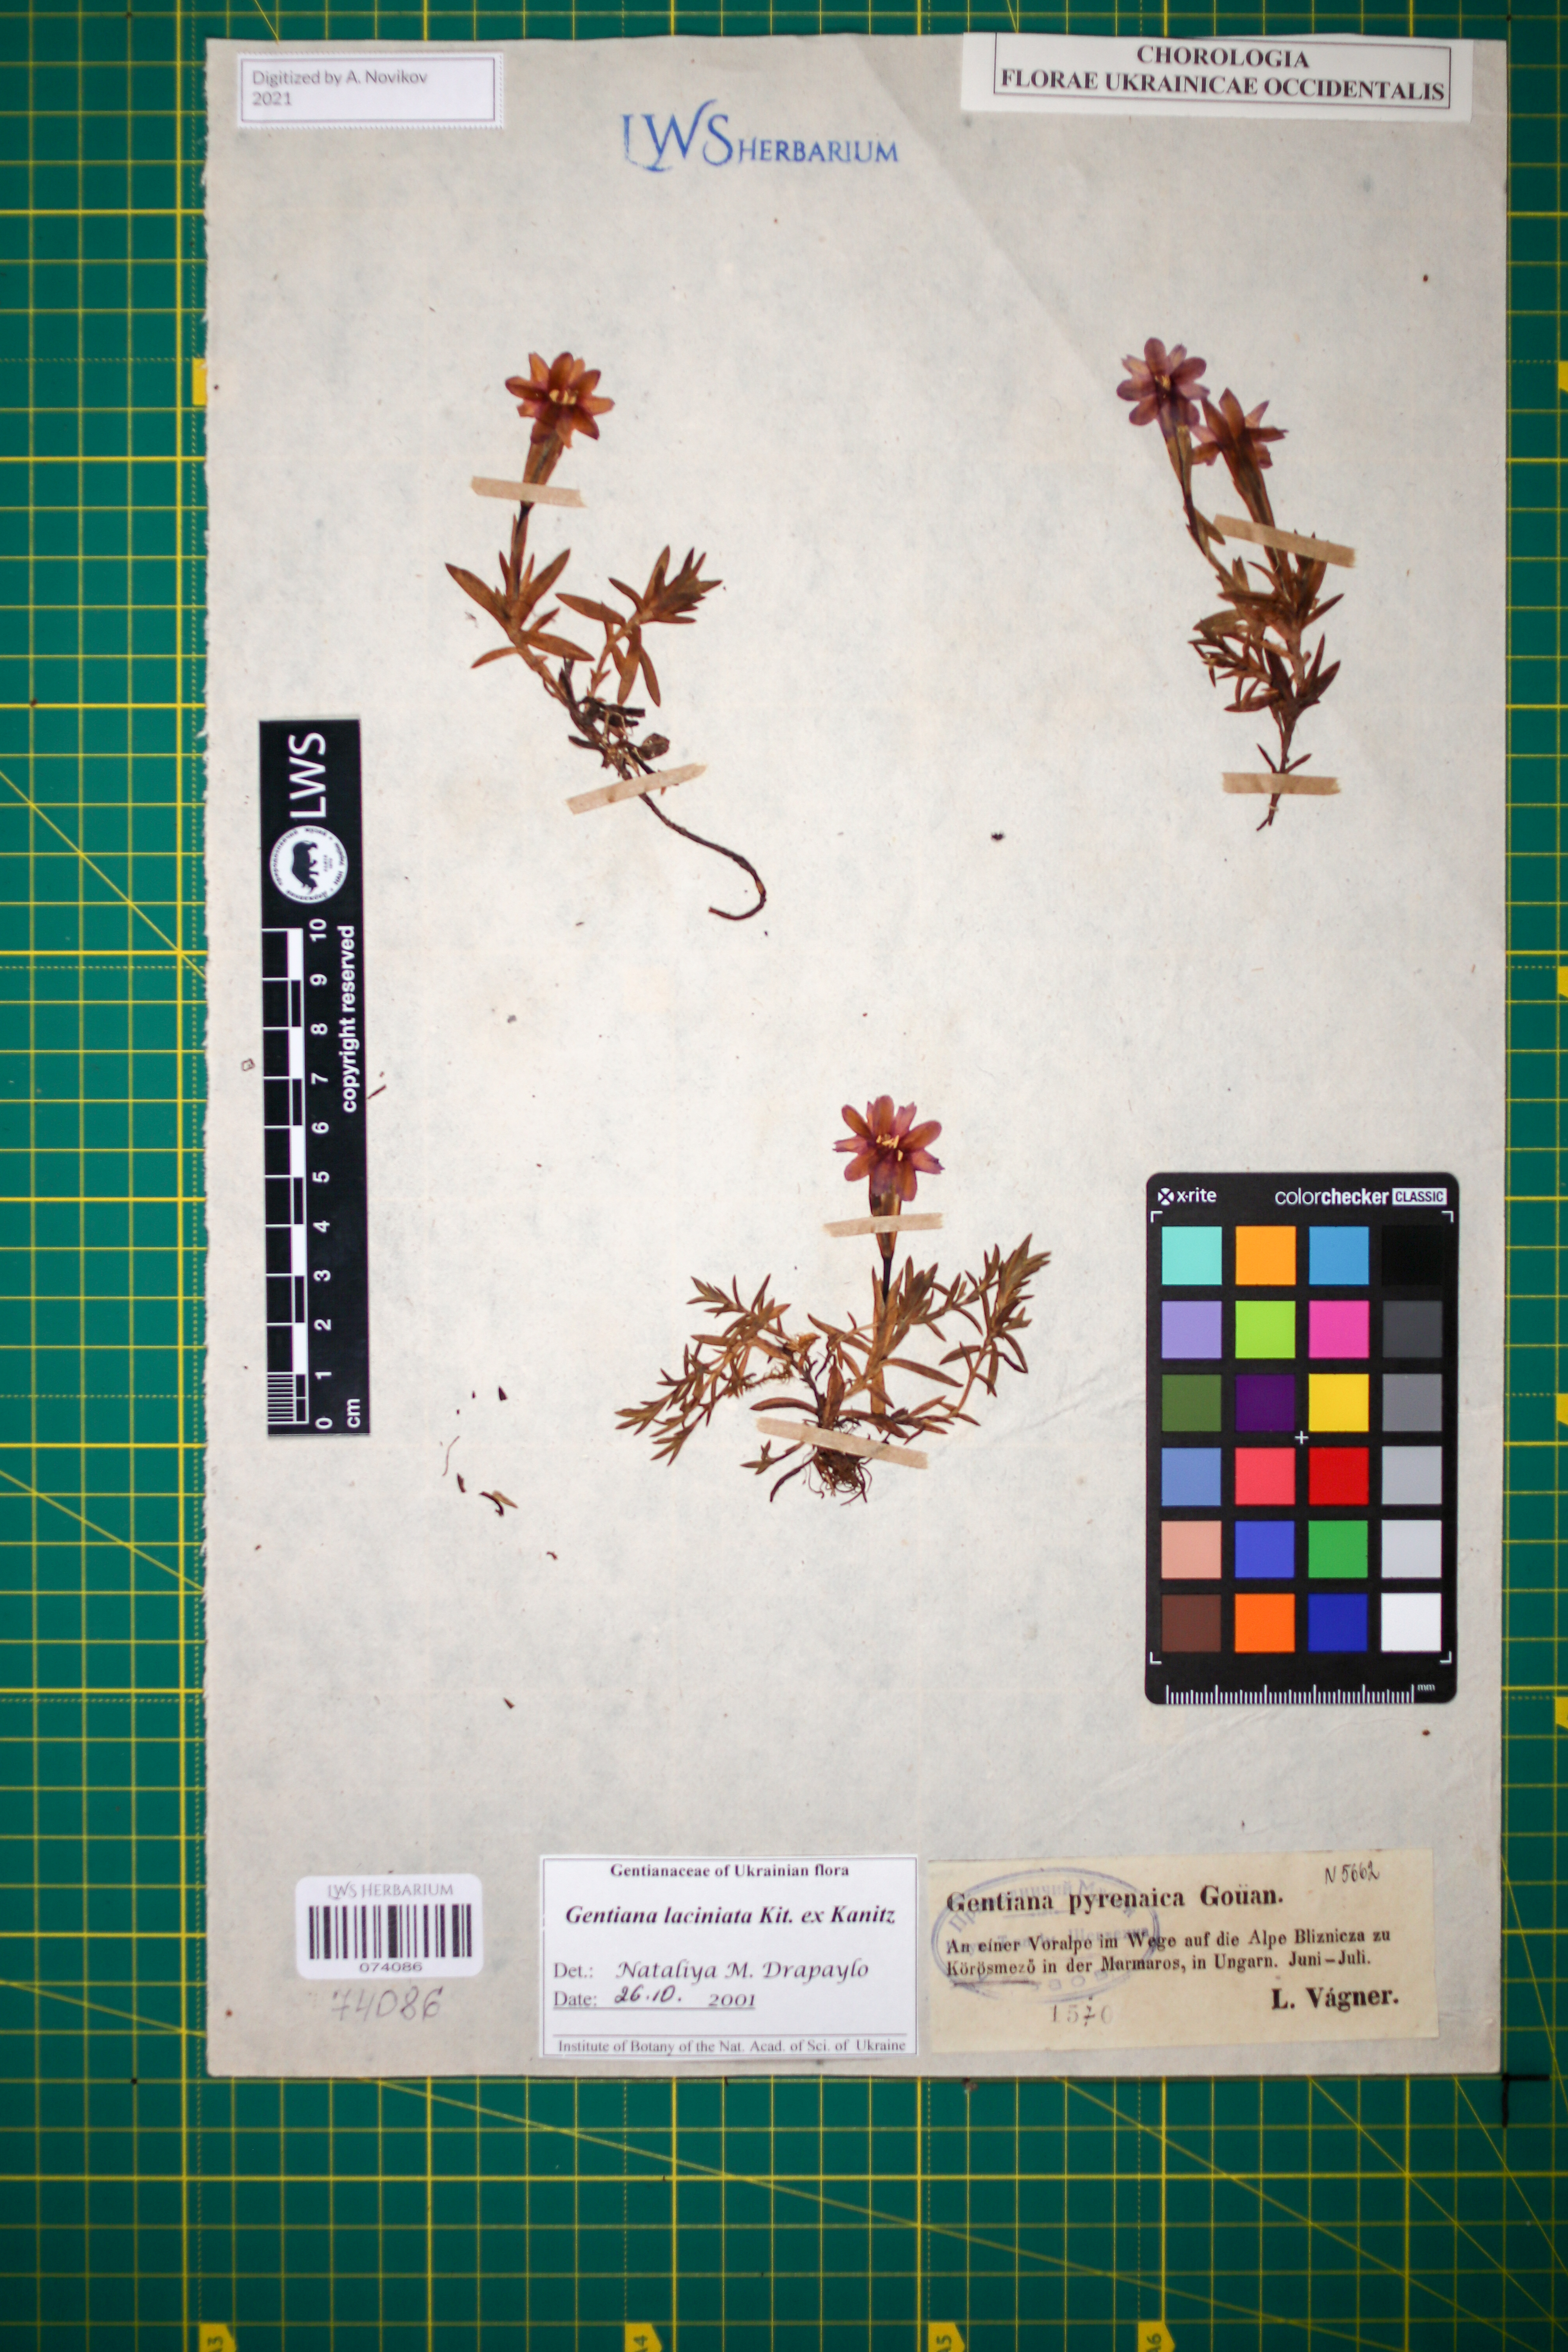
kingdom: Plantae
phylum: Tracheophyta
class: Magnoliopsida
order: Gentianales
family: Gentianaceae
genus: Gentiana
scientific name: Gentiana laciniata
